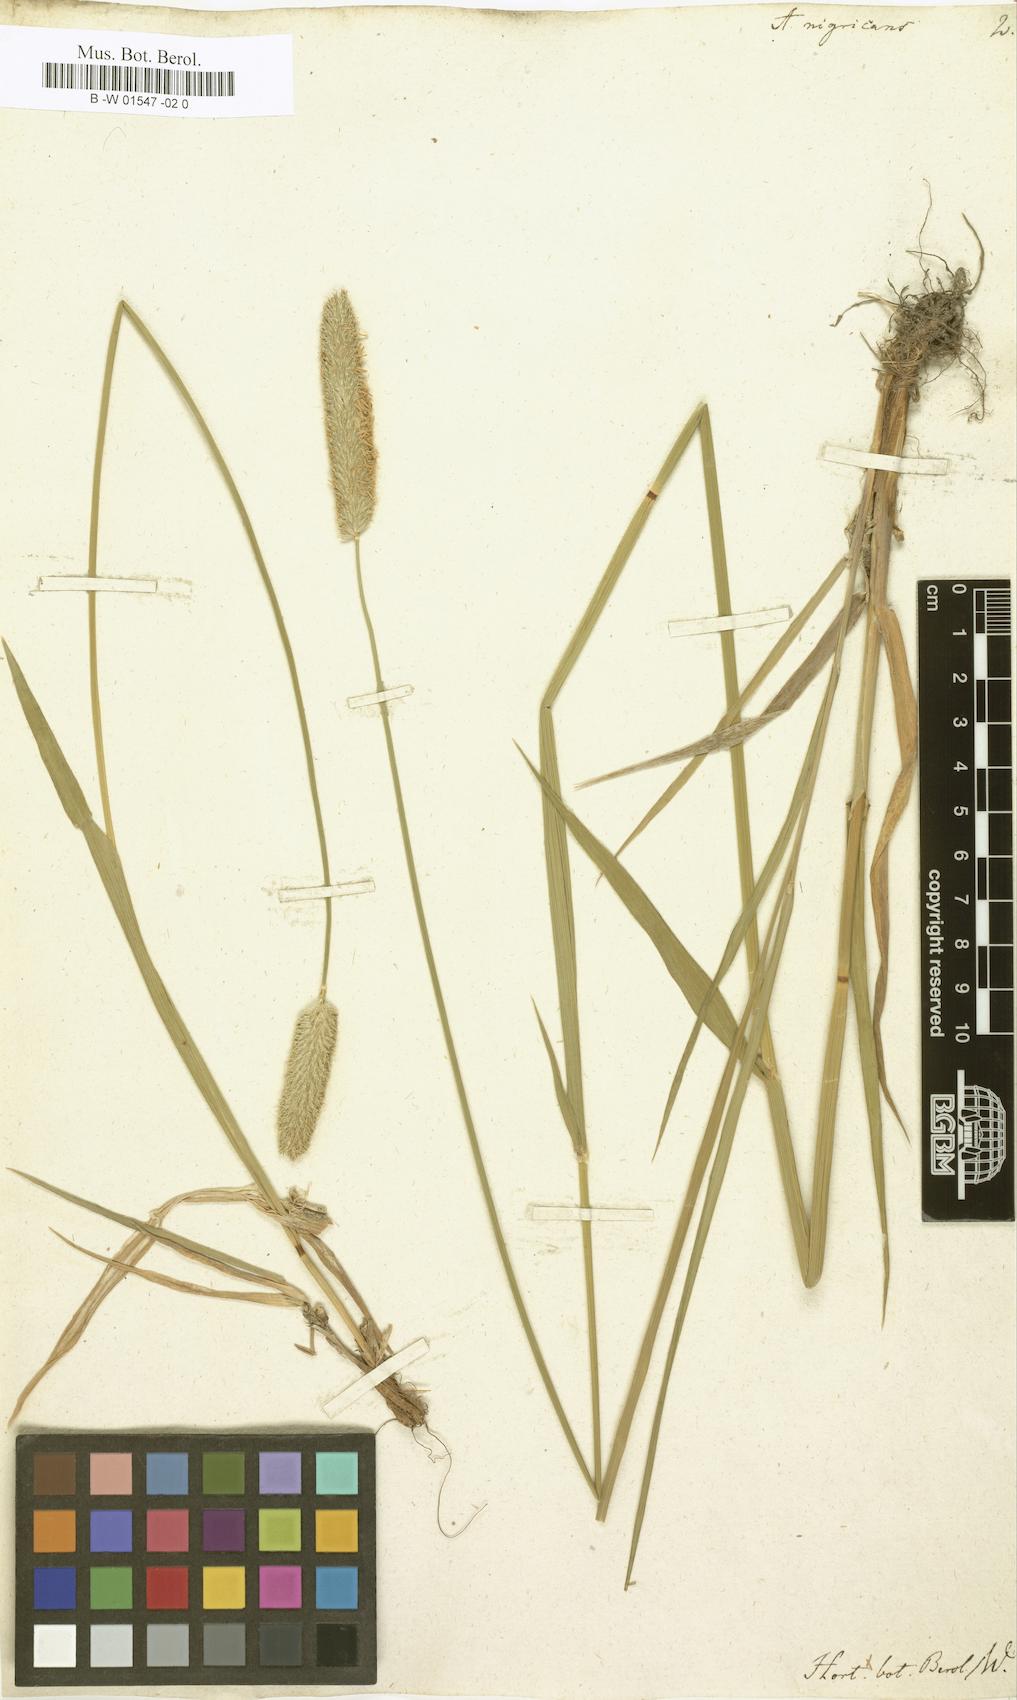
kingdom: Plantae
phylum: Tracheophyta
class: Liliopsida
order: Poales
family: Poaceae
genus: Alopecurus
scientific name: Alopecurus arundinaceus
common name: Creeping meadow foxtail
